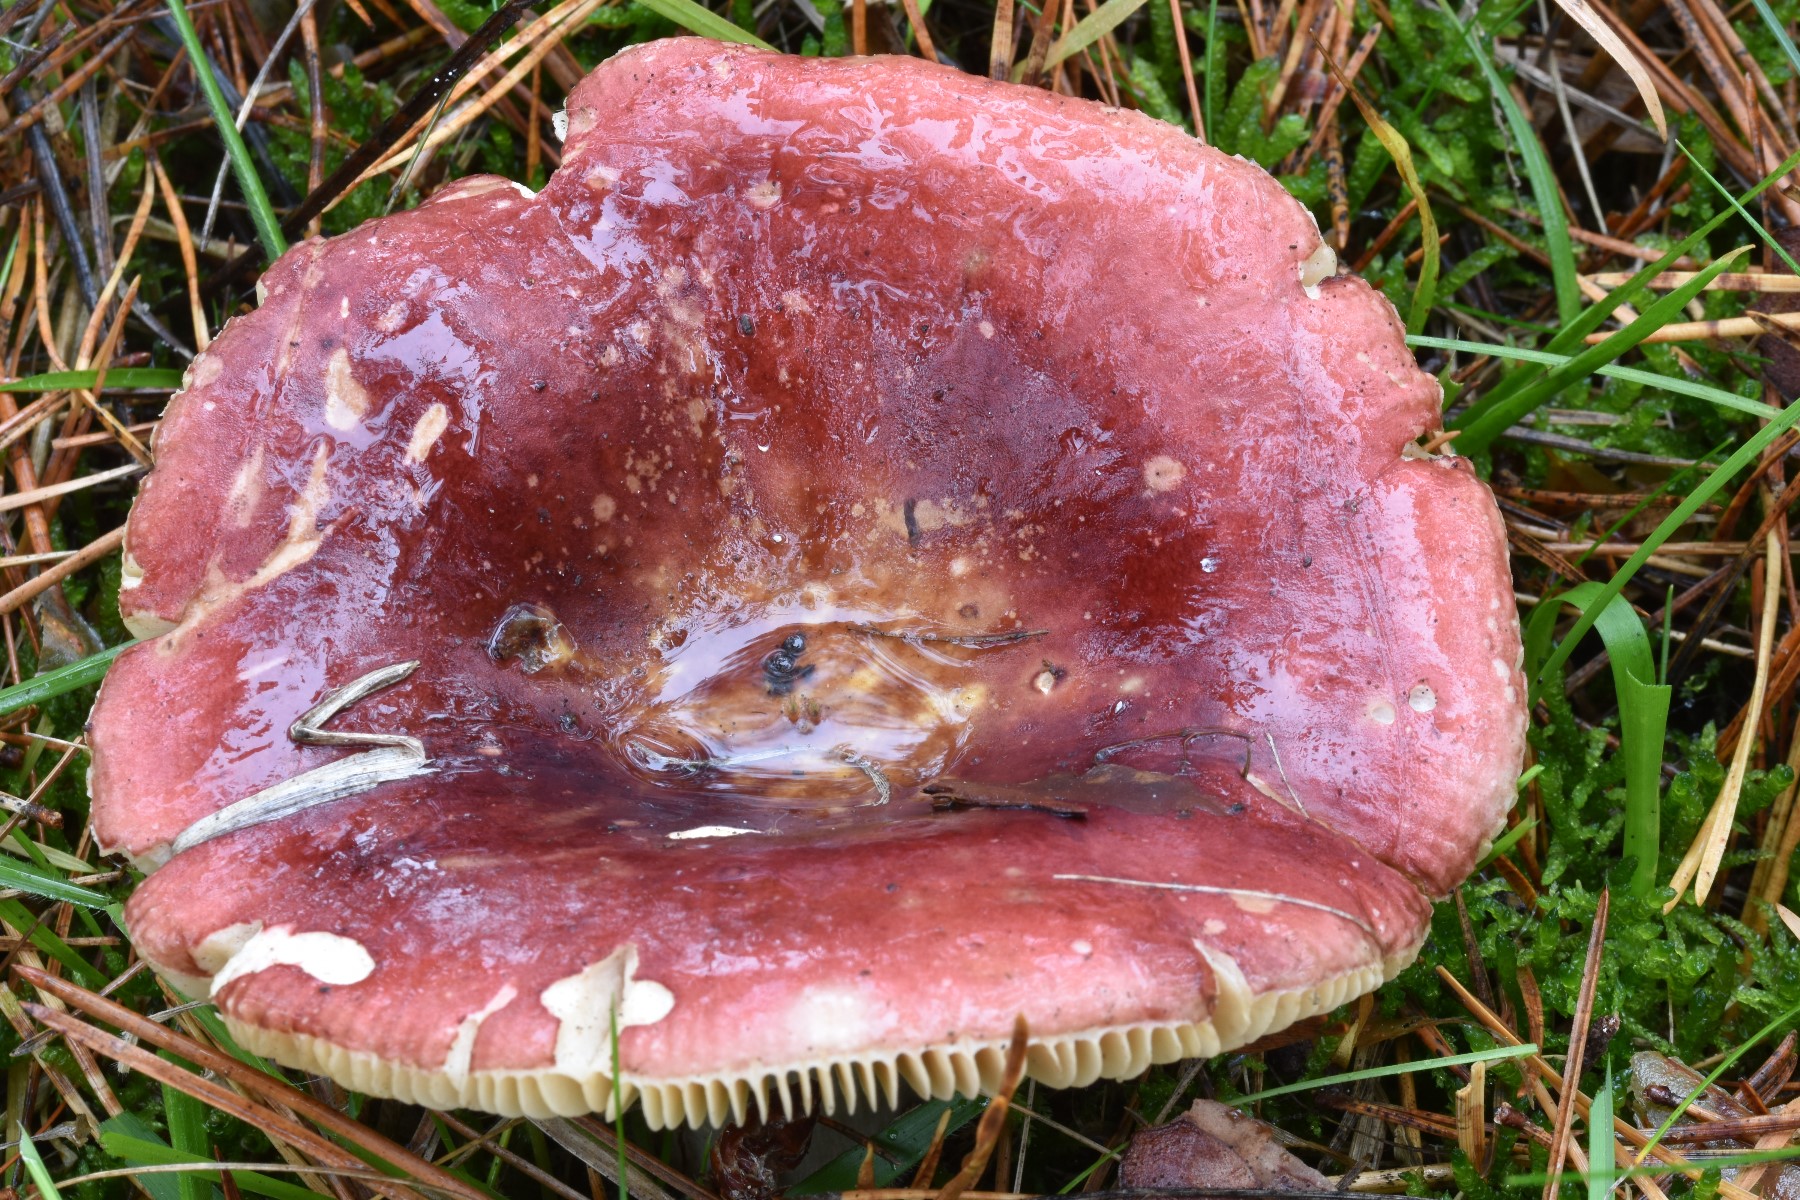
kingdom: Fungi
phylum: Basidiomycota
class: Agaricomycetes
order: Russulales
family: Russulaceae
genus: Russula
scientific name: Russula xerampelina
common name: hummer-skørhat
